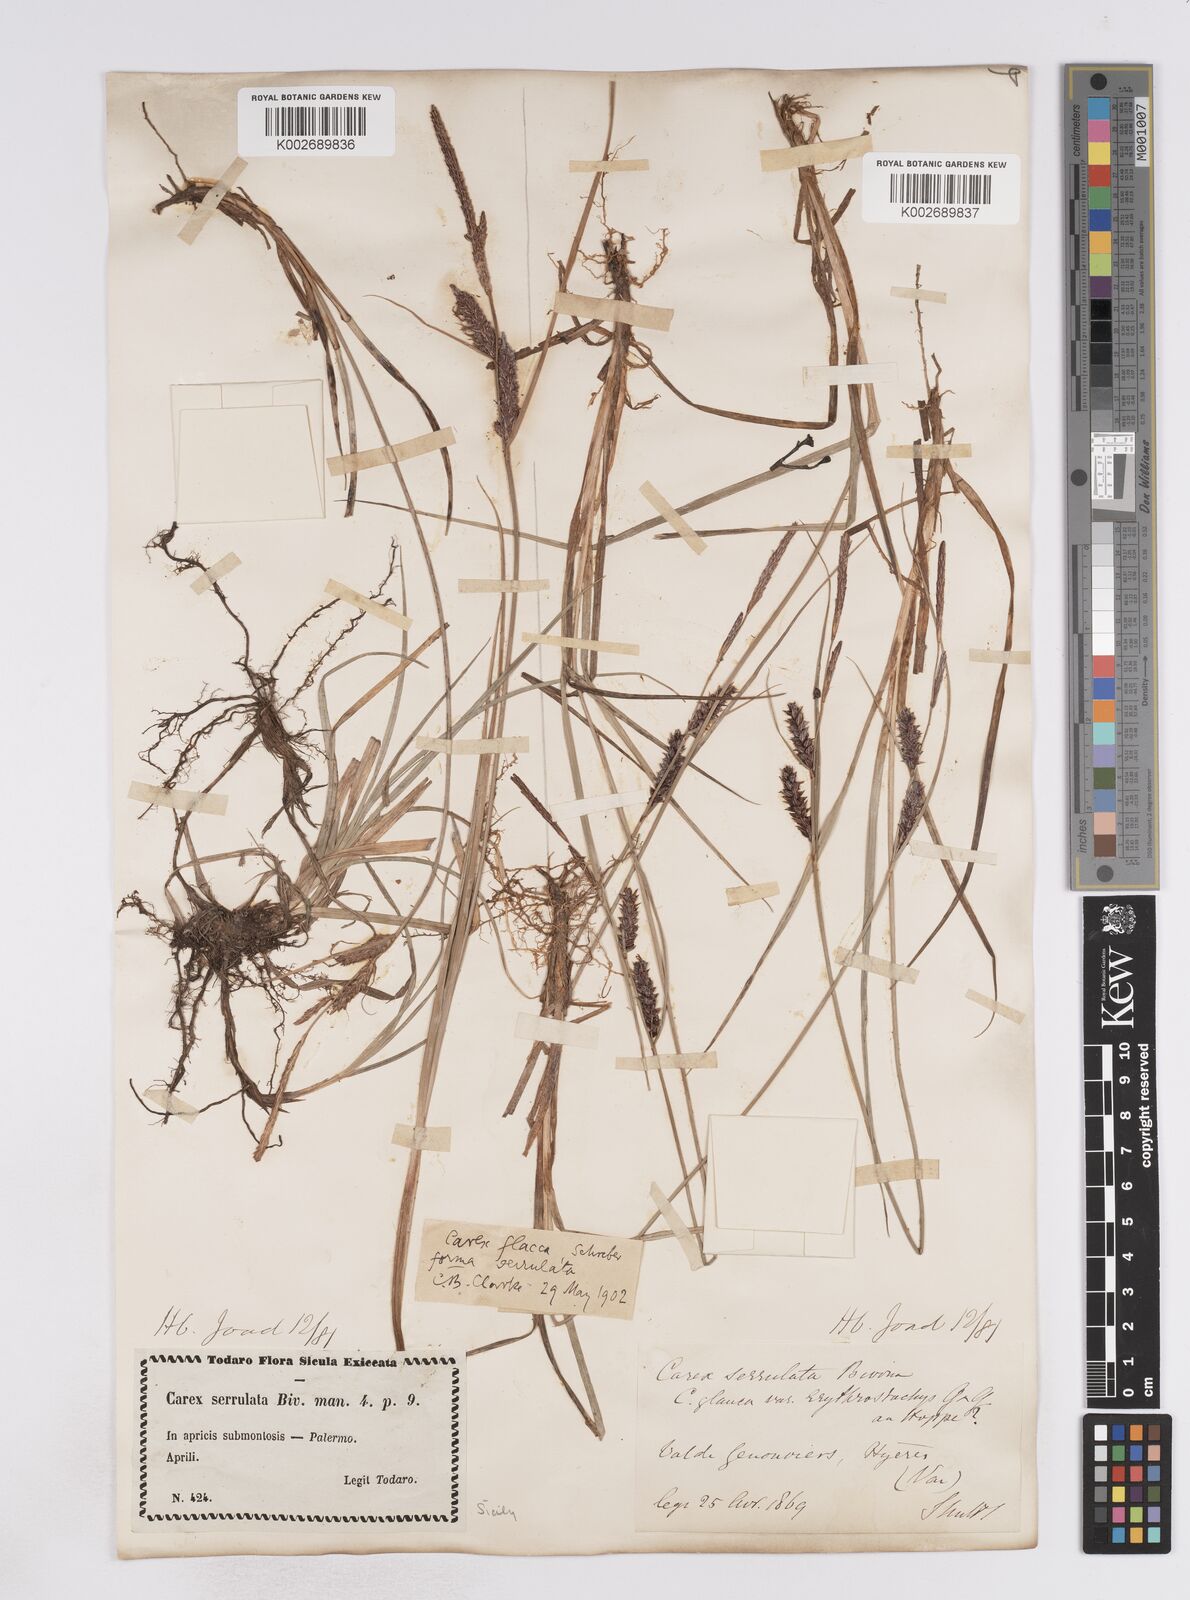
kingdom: Plantae
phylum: Tracheophyta
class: Liliopsida
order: Poales
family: Cyperaceae
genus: Carex
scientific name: Carex flacca
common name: Glaucous sedge
